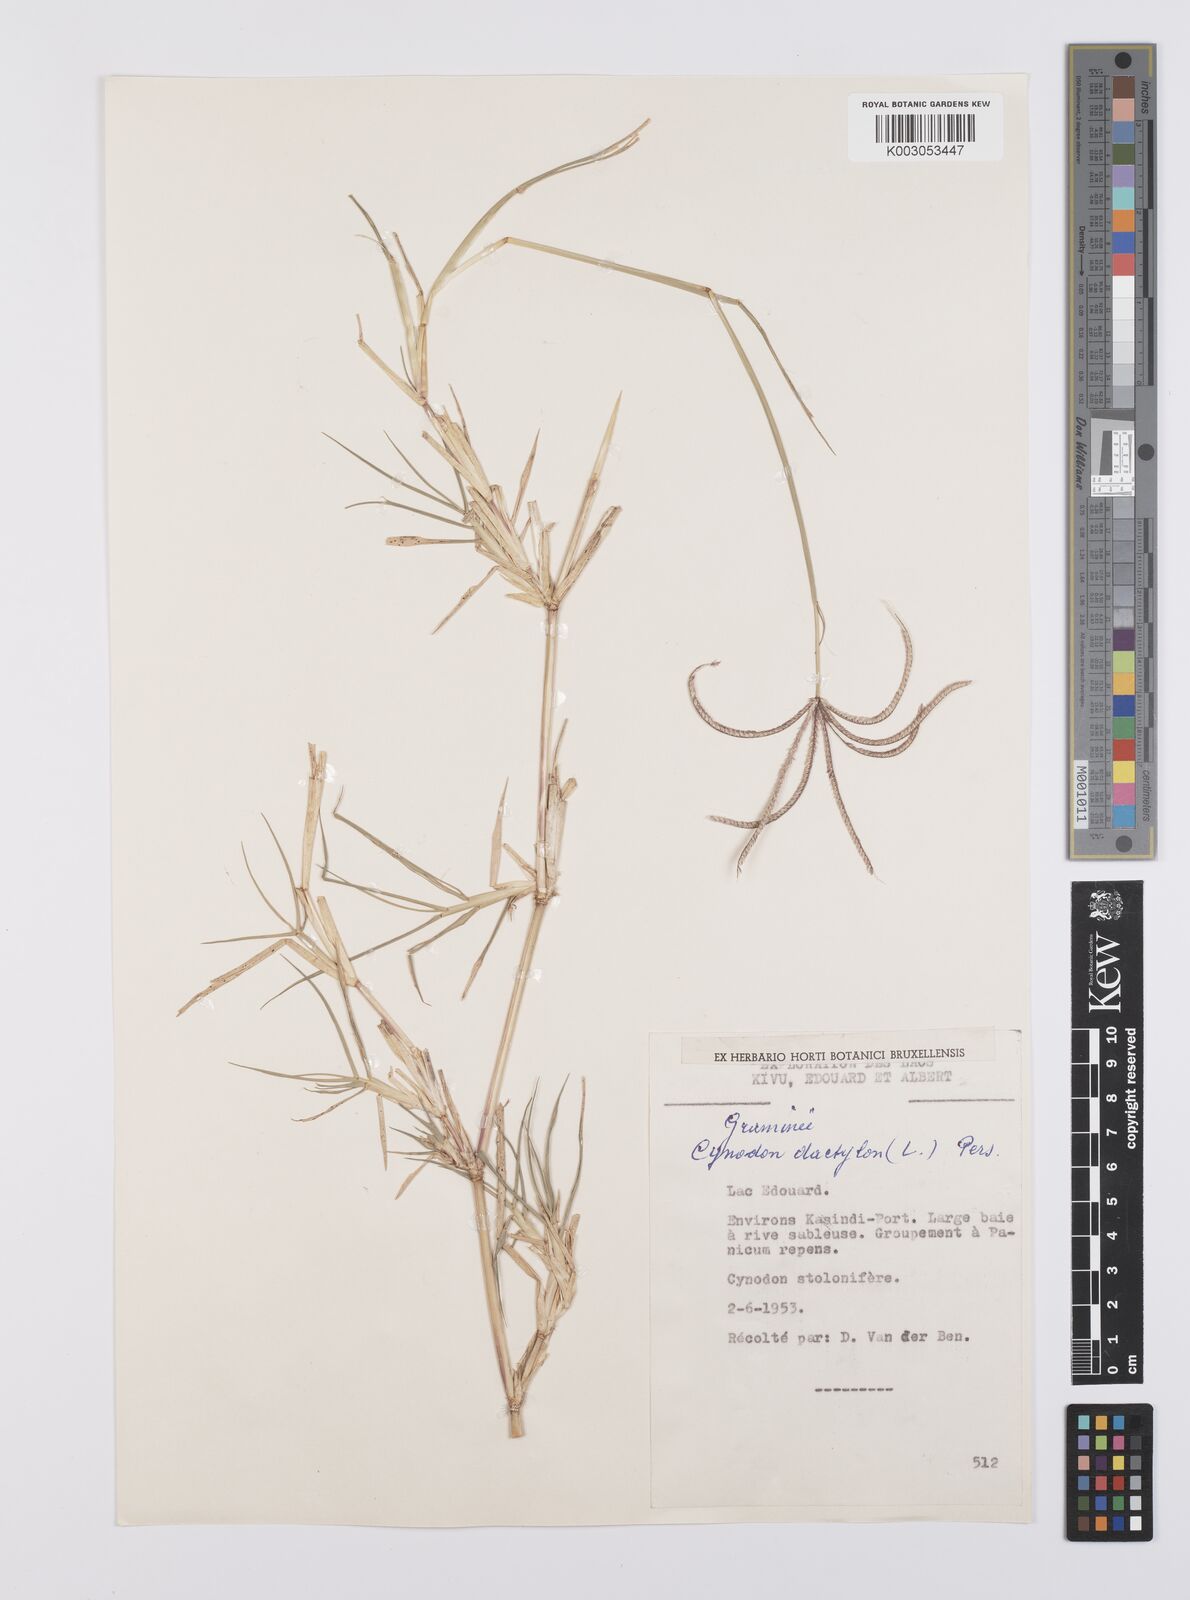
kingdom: Plantae
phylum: Tracheophyta
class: Liliopsida
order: Poales
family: Poaceae
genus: Cynodon
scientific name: Cynodon aethiopicus
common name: Ethiopian dogstooth grass
